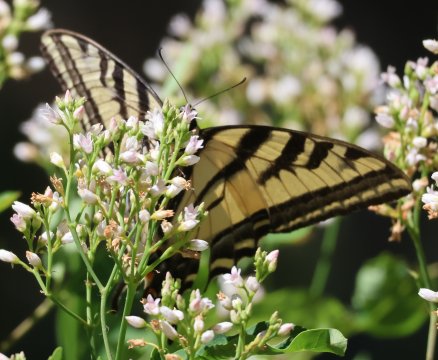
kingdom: Animalia
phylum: Arthropoda
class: Insecta
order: Lepidoptera
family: Papilionidae
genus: Pterourus
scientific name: Pterourus rutulus
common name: Western Tiger Swallowtail
